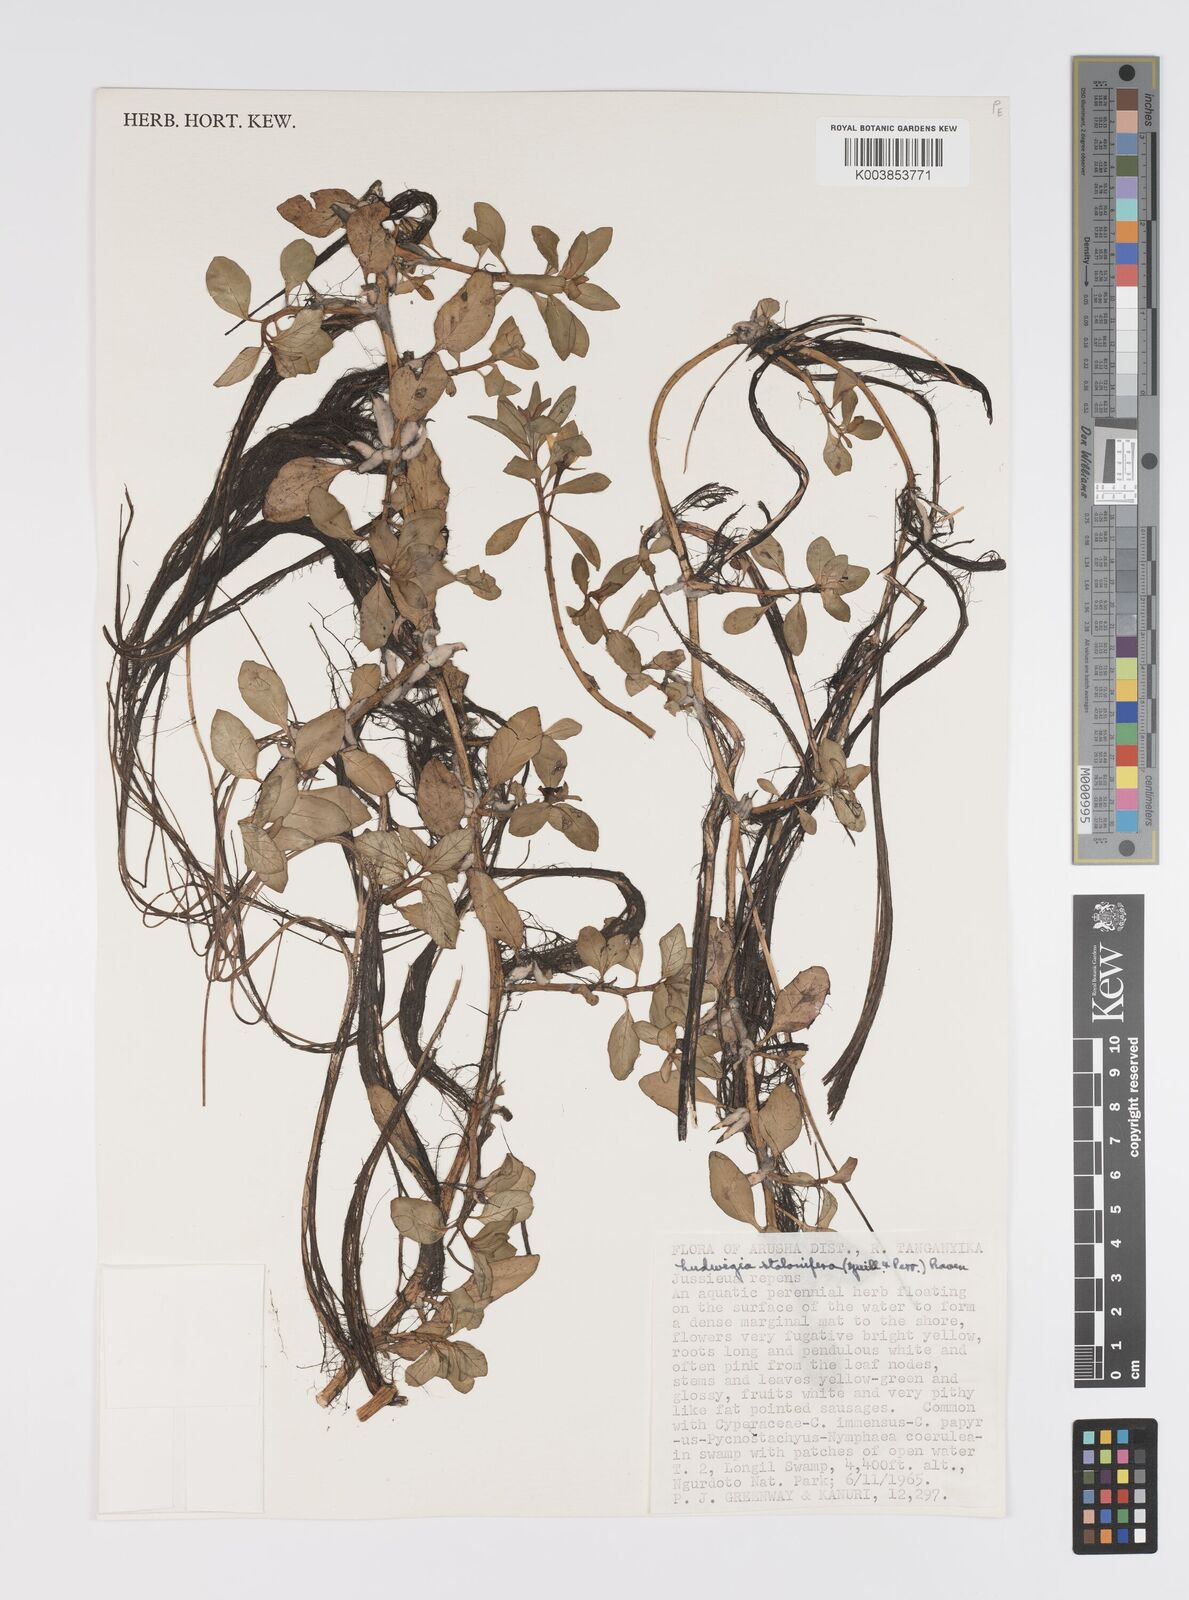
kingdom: Plantae
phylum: Tracheophyta
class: Magnoliopsida
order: Myrtales
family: Onagraceae
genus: Ludwigia
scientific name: Ludwigia repens
